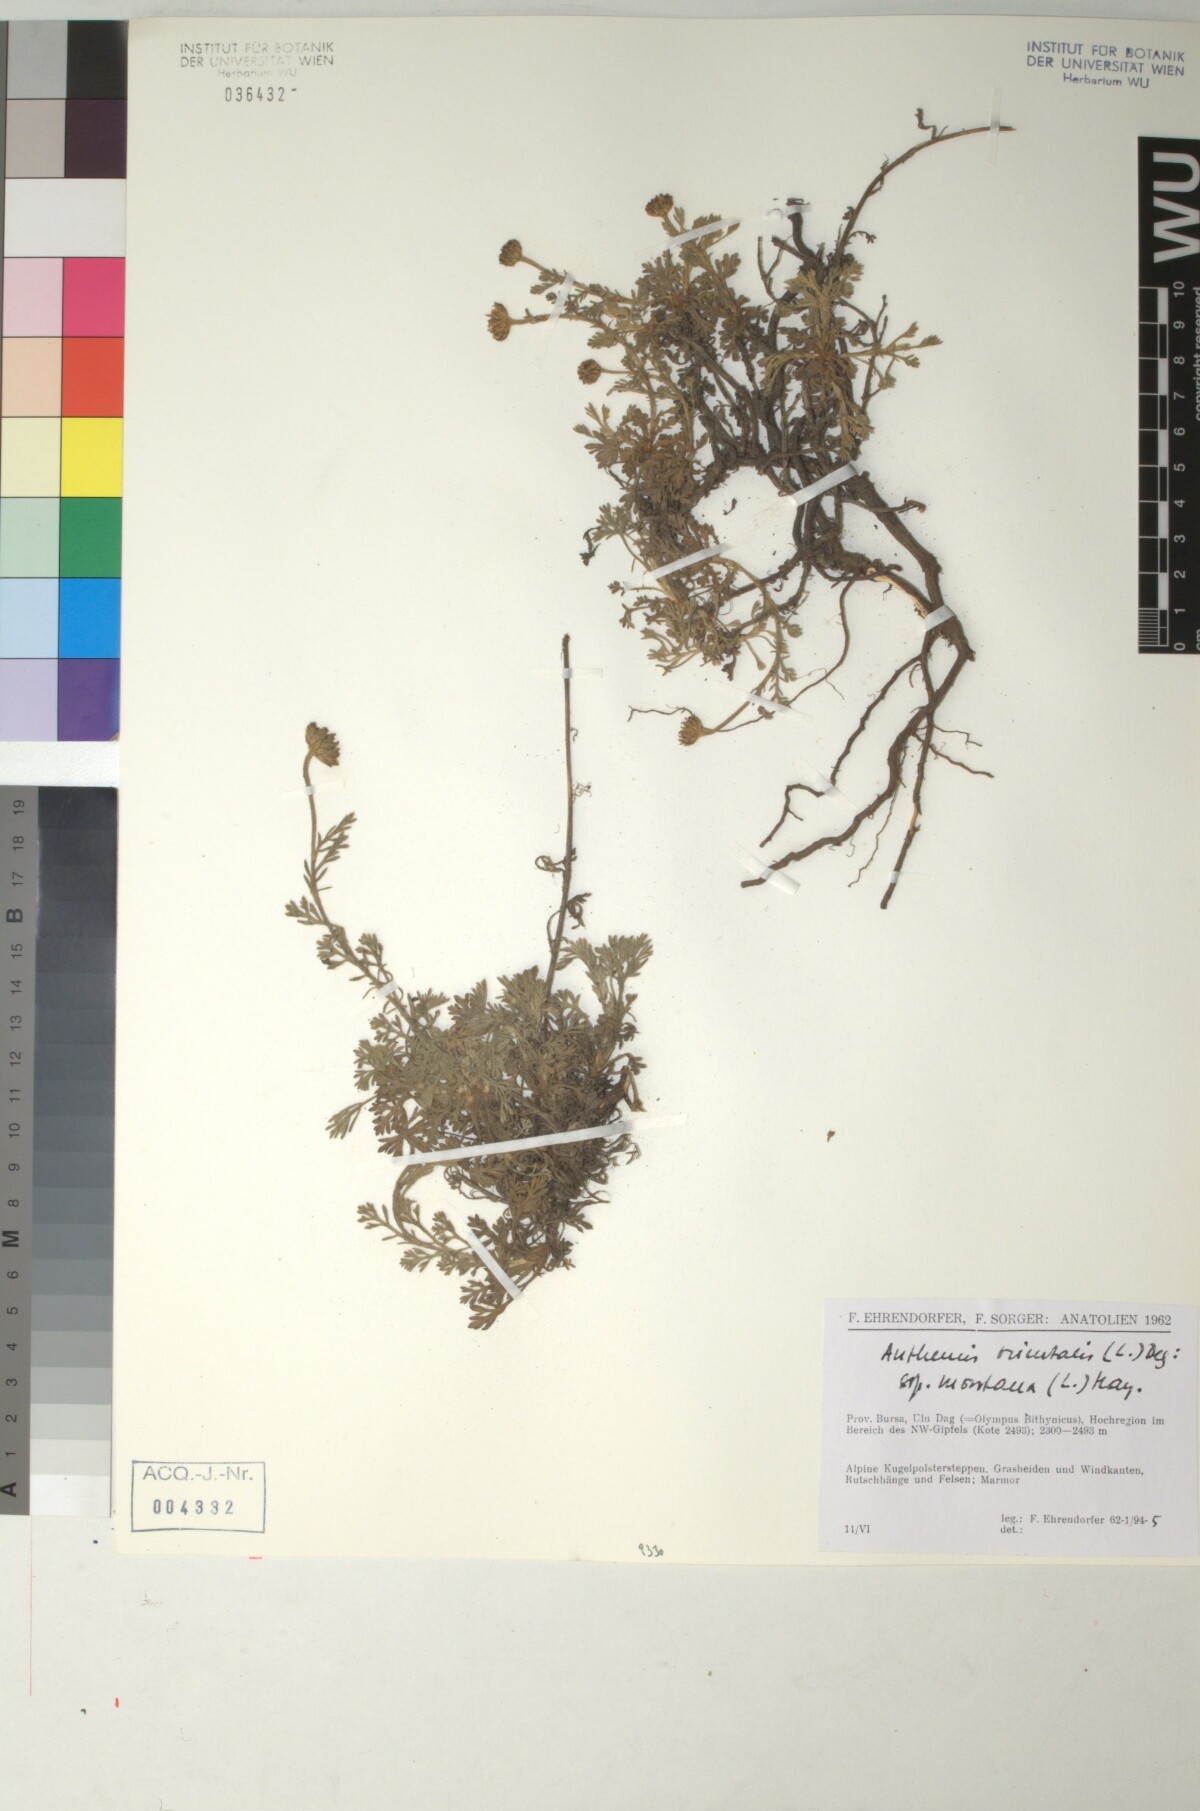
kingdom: Plantae
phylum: Tracheophyta
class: Magnoliopsida
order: Asterales
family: Asteraceae
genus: Anthemis
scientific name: Anthemis orientalis
